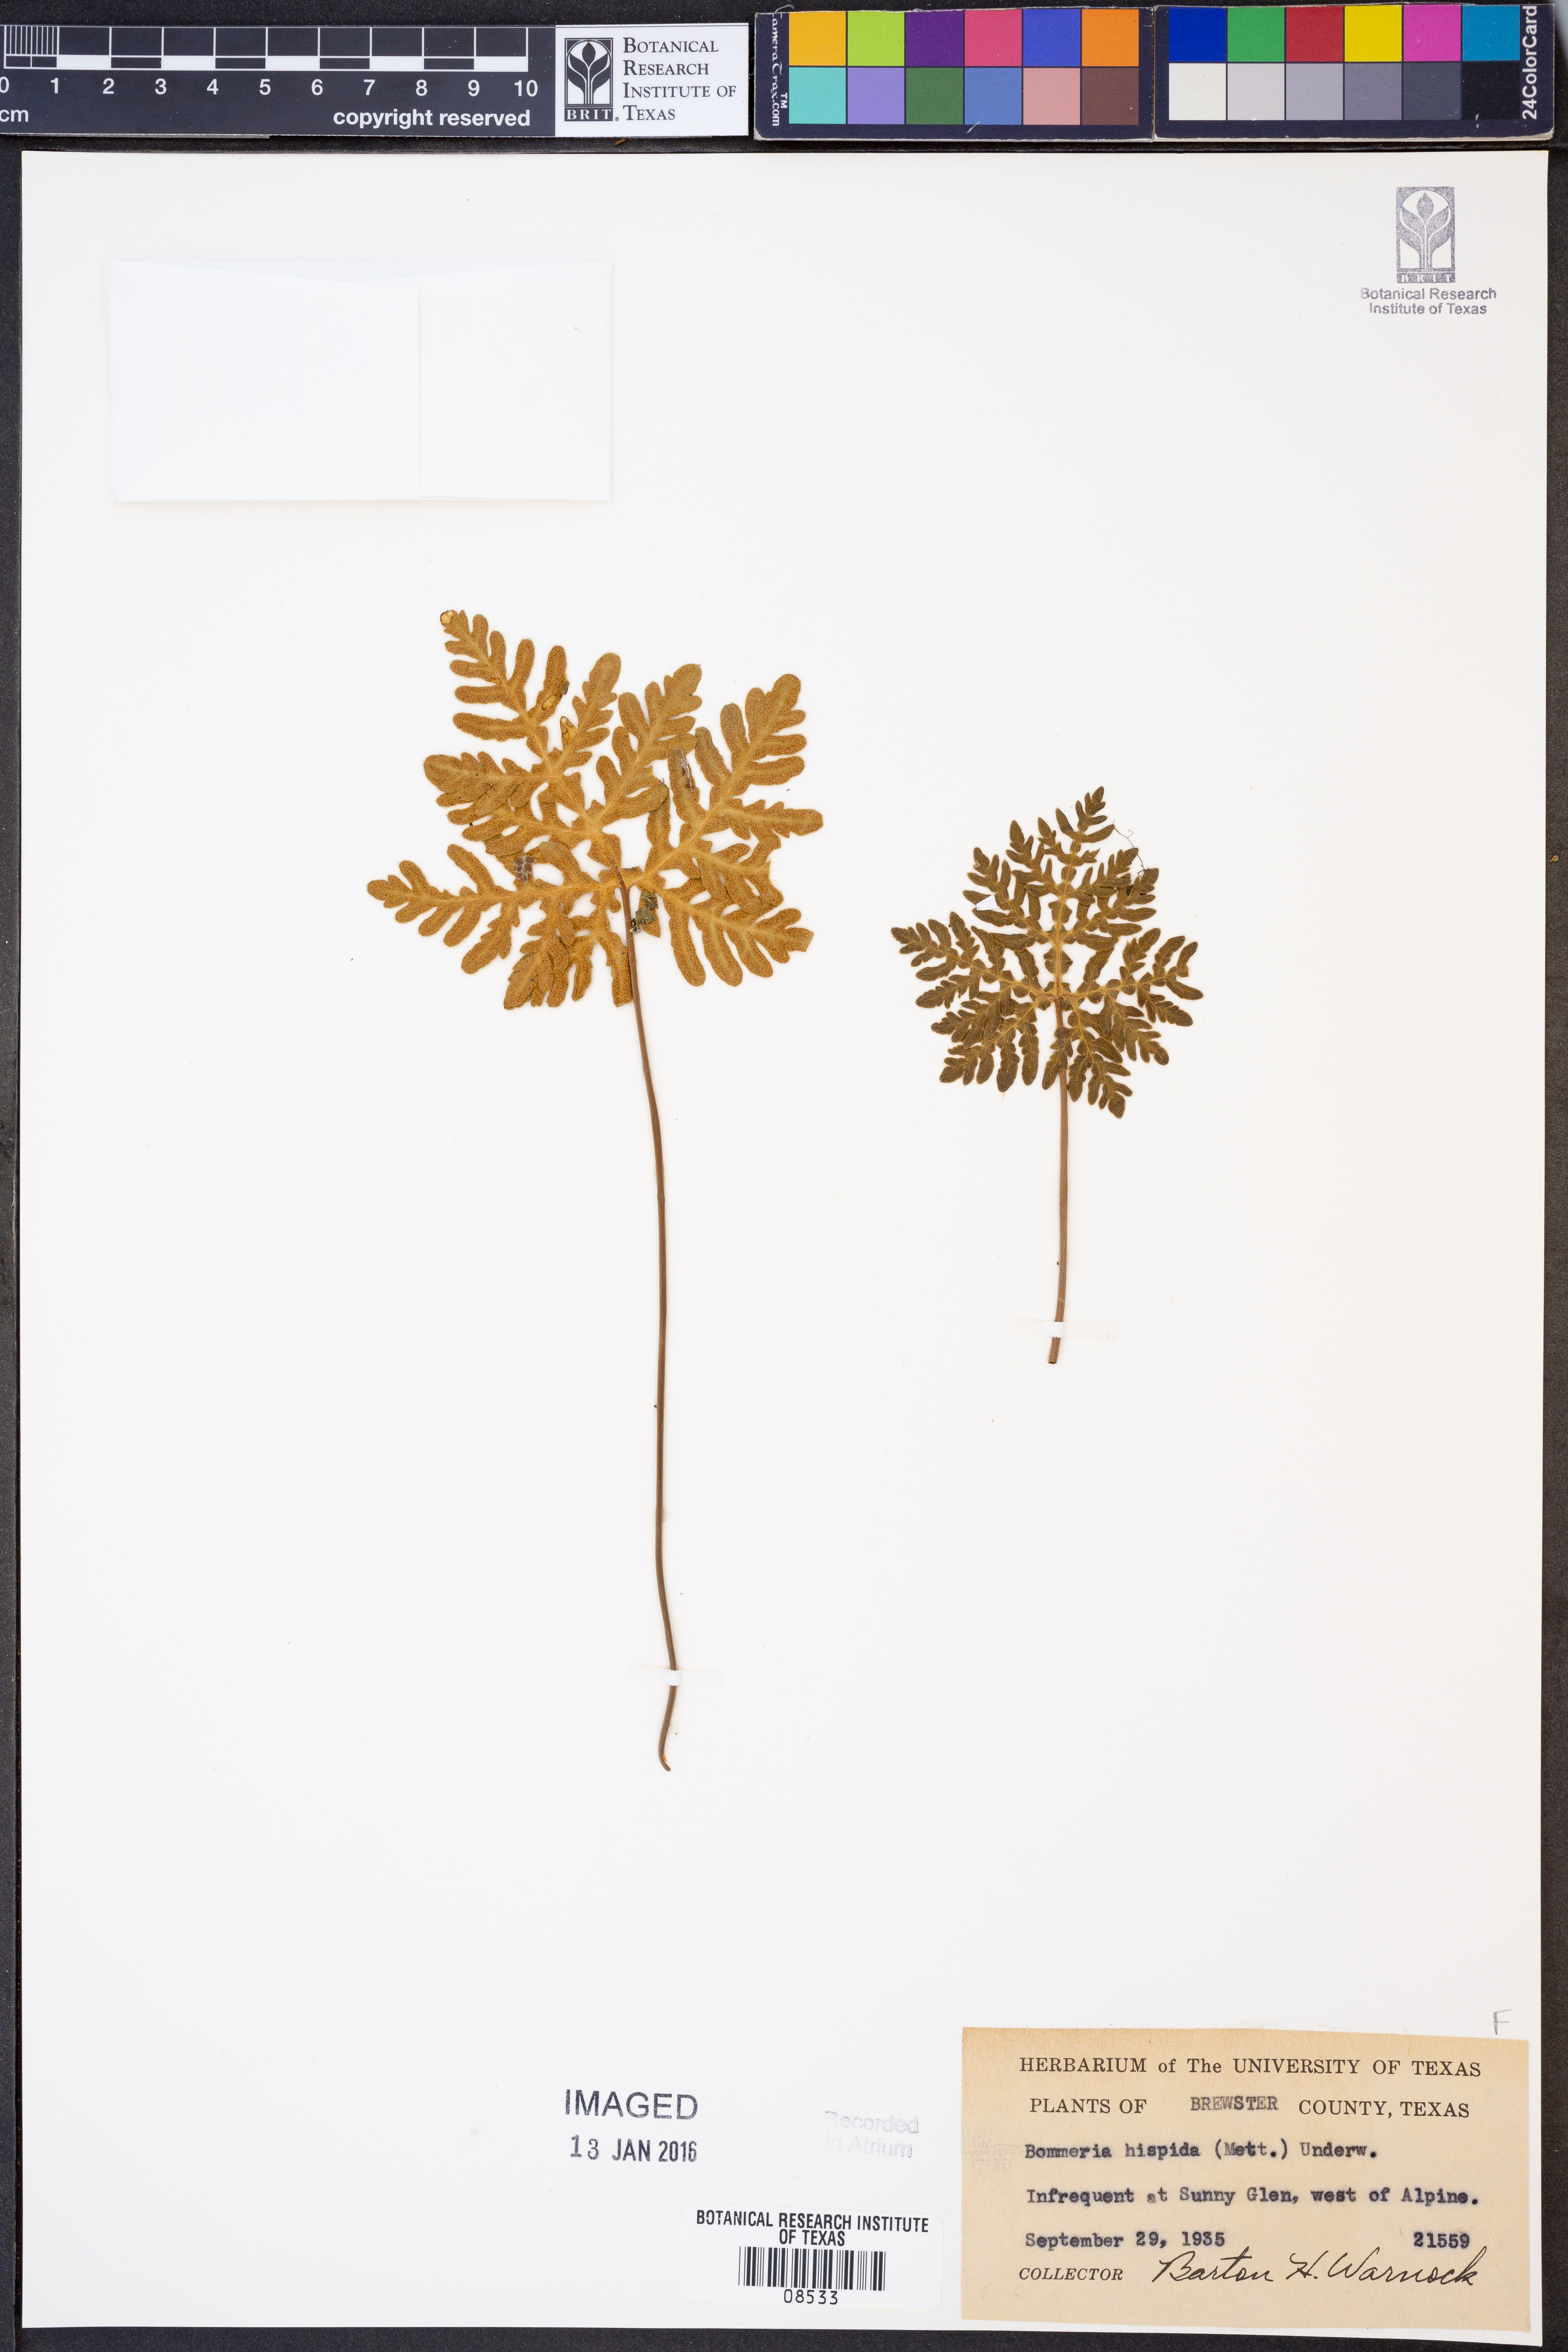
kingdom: Plantae
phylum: Tracheophyta
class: Polypodiopsida
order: Polypodiales
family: Pteridaceae
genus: Bommeria
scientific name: Bommeria hispida
